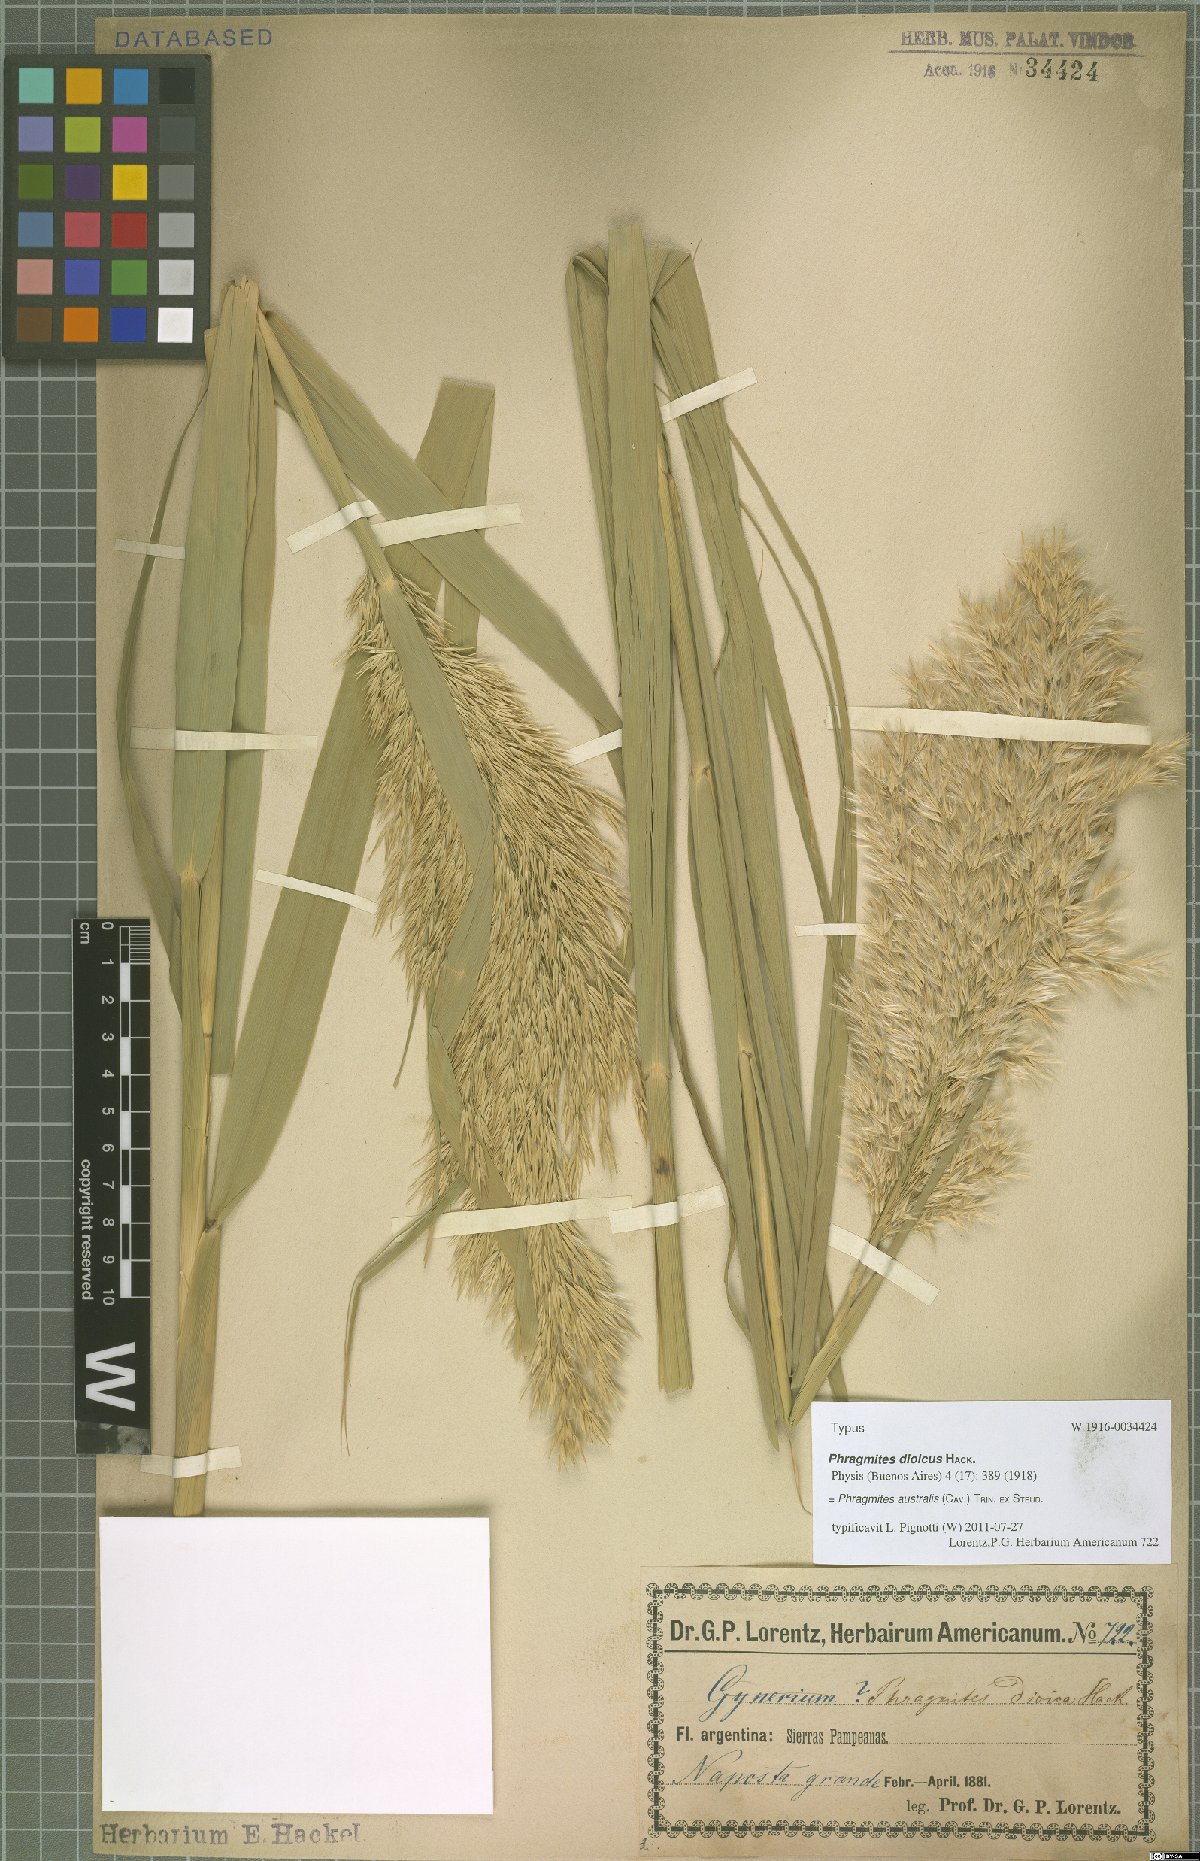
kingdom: Plantae
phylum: Tracheophyta
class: Liliopsida
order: Poales
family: Poaceae
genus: Phragmites
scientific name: Phragmites australis
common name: Common reed
